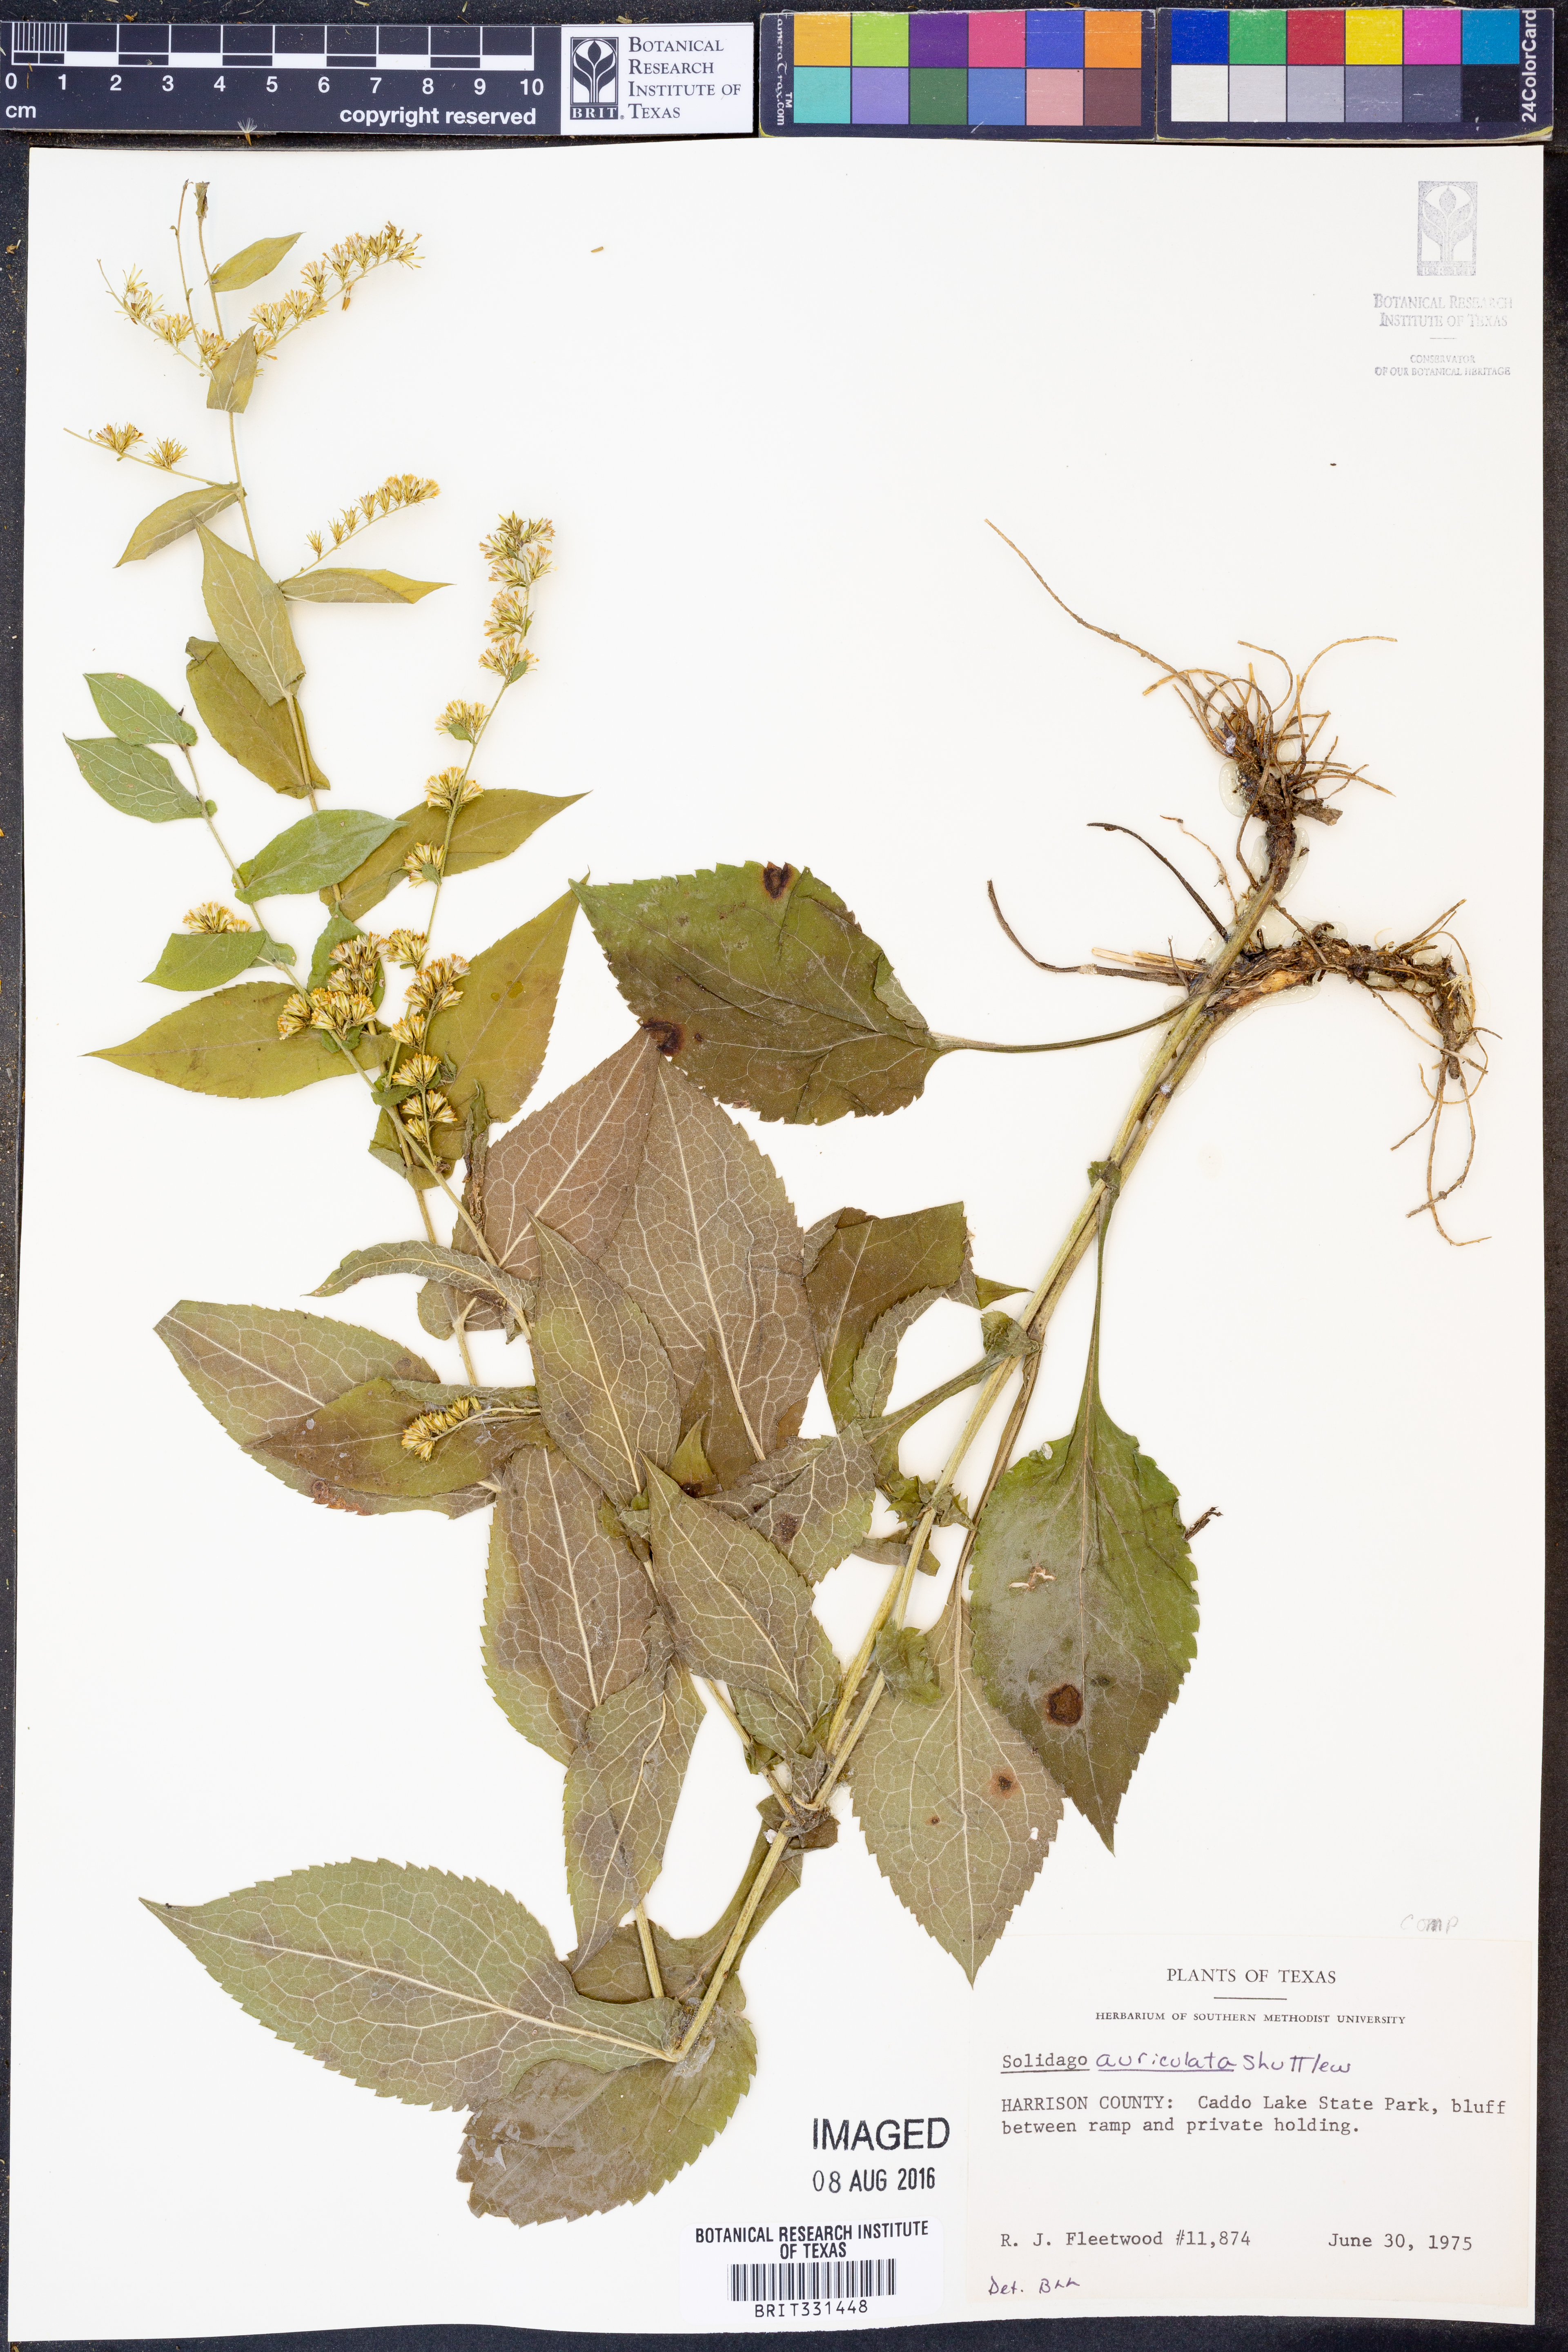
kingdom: Plantae
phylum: Tracheophyta
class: Magnoliopsida
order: Asterales
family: Asteraceae
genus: Solidago
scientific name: Solidago auriculata
